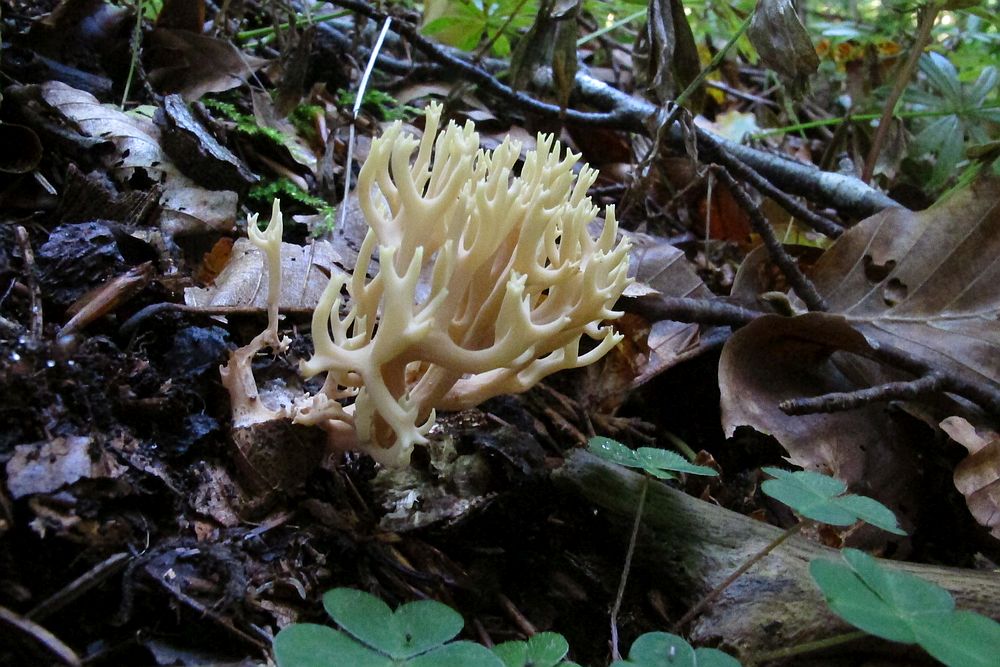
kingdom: Fungi
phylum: Basidiomycota
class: Agaricomycetes
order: Gomphales
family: Gomphaceae
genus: Ramaria
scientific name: Ramaria stricta
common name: rank koralsvamp
